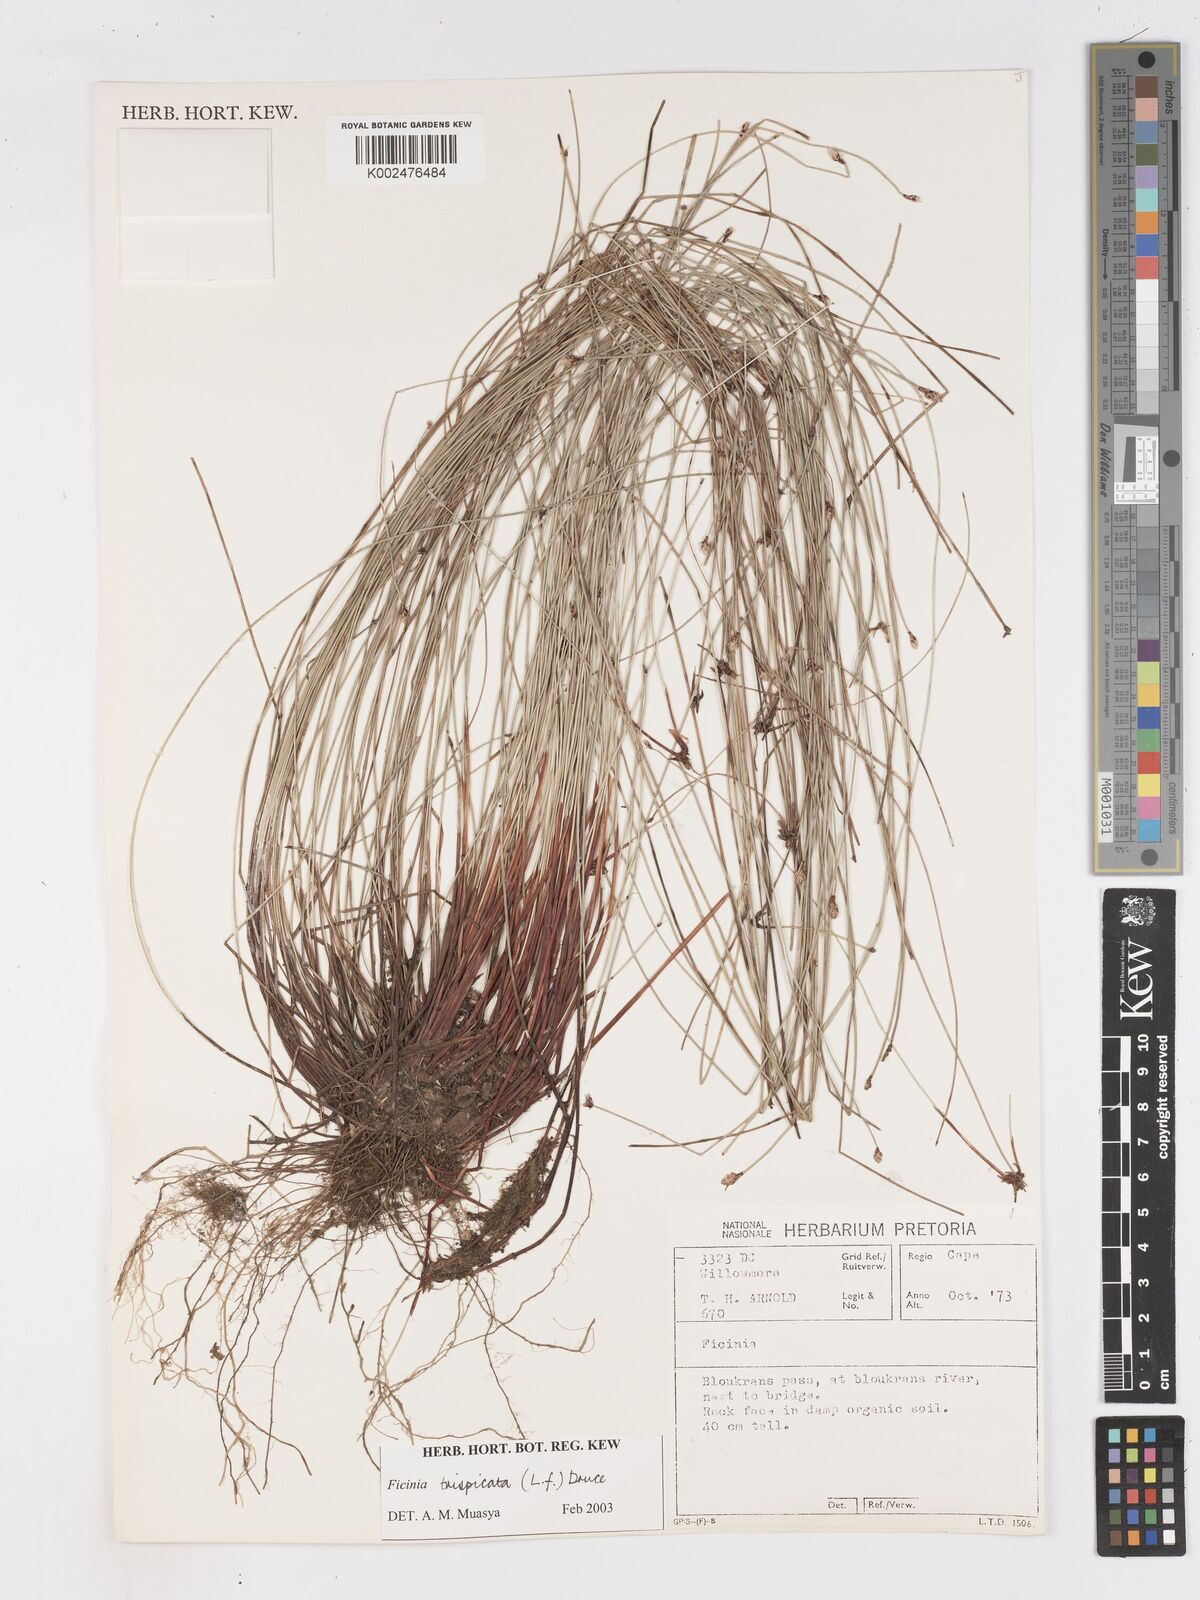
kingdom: Plantae
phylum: Tracheophyta
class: Liliopsida
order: Poales
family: Cyperaceae
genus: Ficinia
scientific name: Ficinia sylvatica
